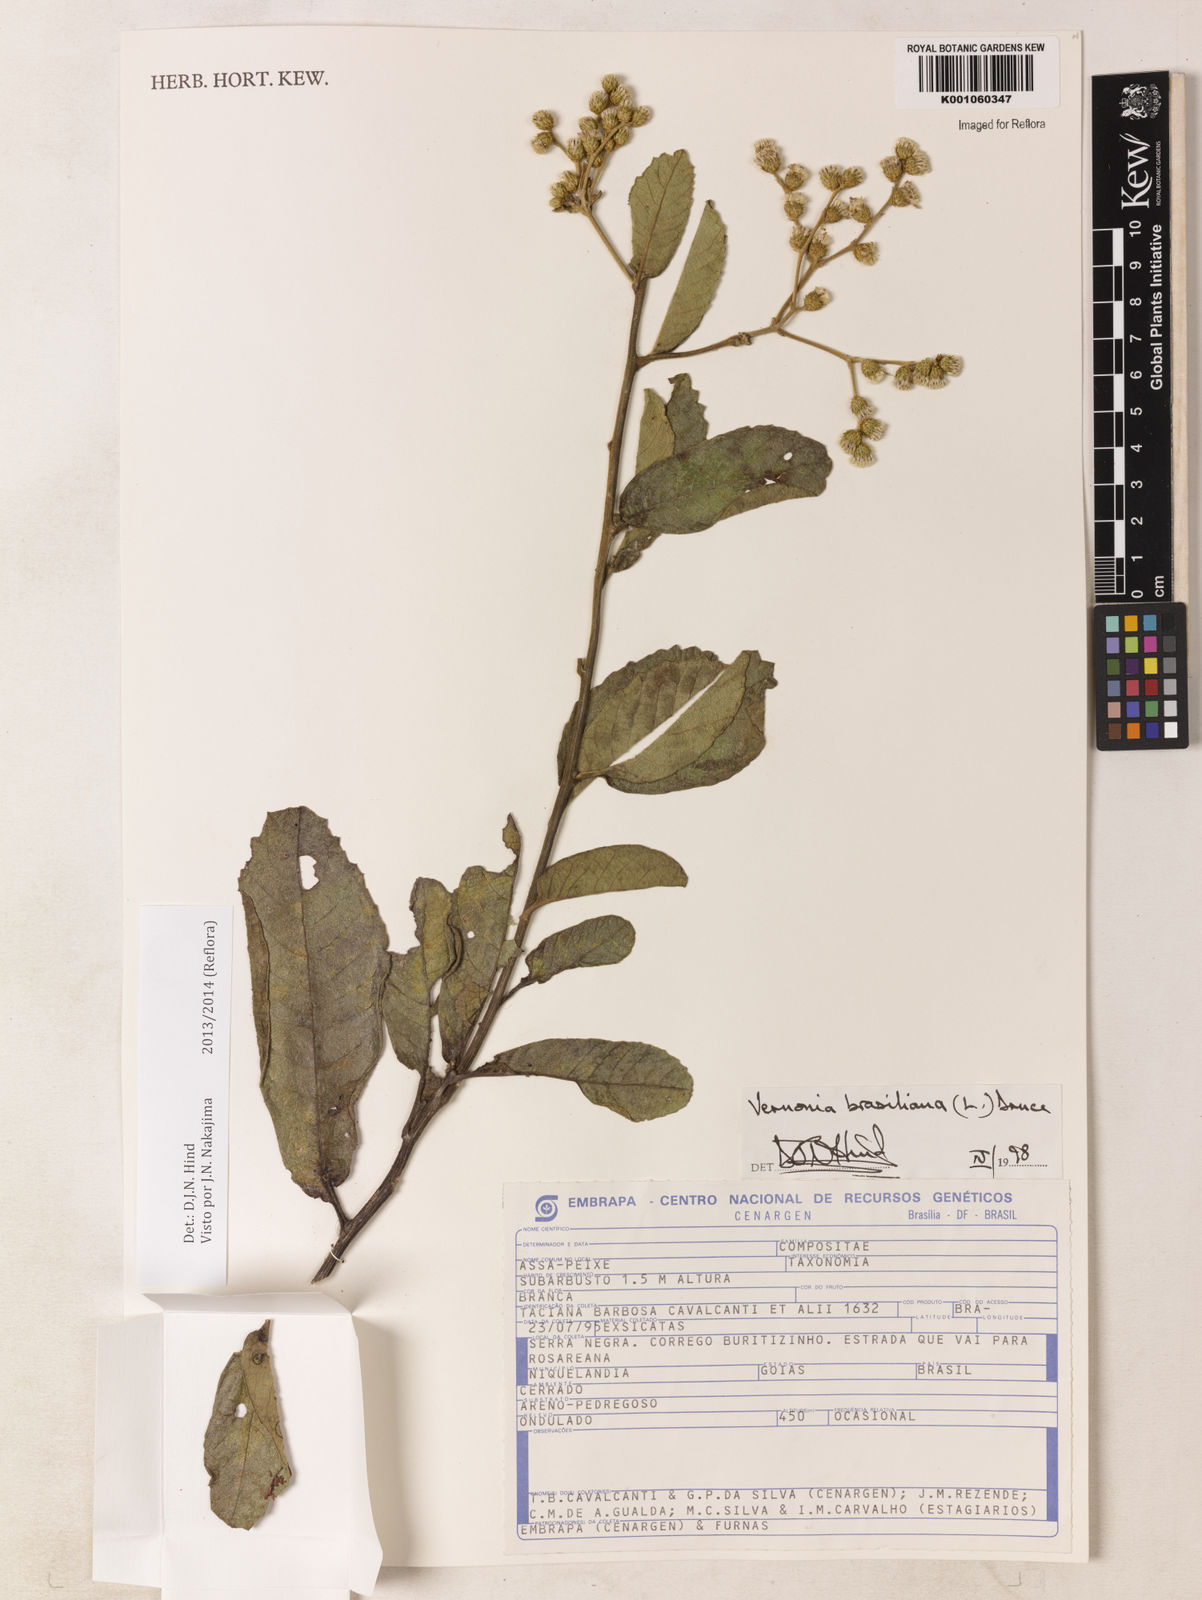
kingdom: Plantae
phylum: Tracheophyta
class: Magnoliopsida
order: Asterales
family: Asteraceae
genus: Vernonanthura
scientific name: Vernonanthura brasiliana
